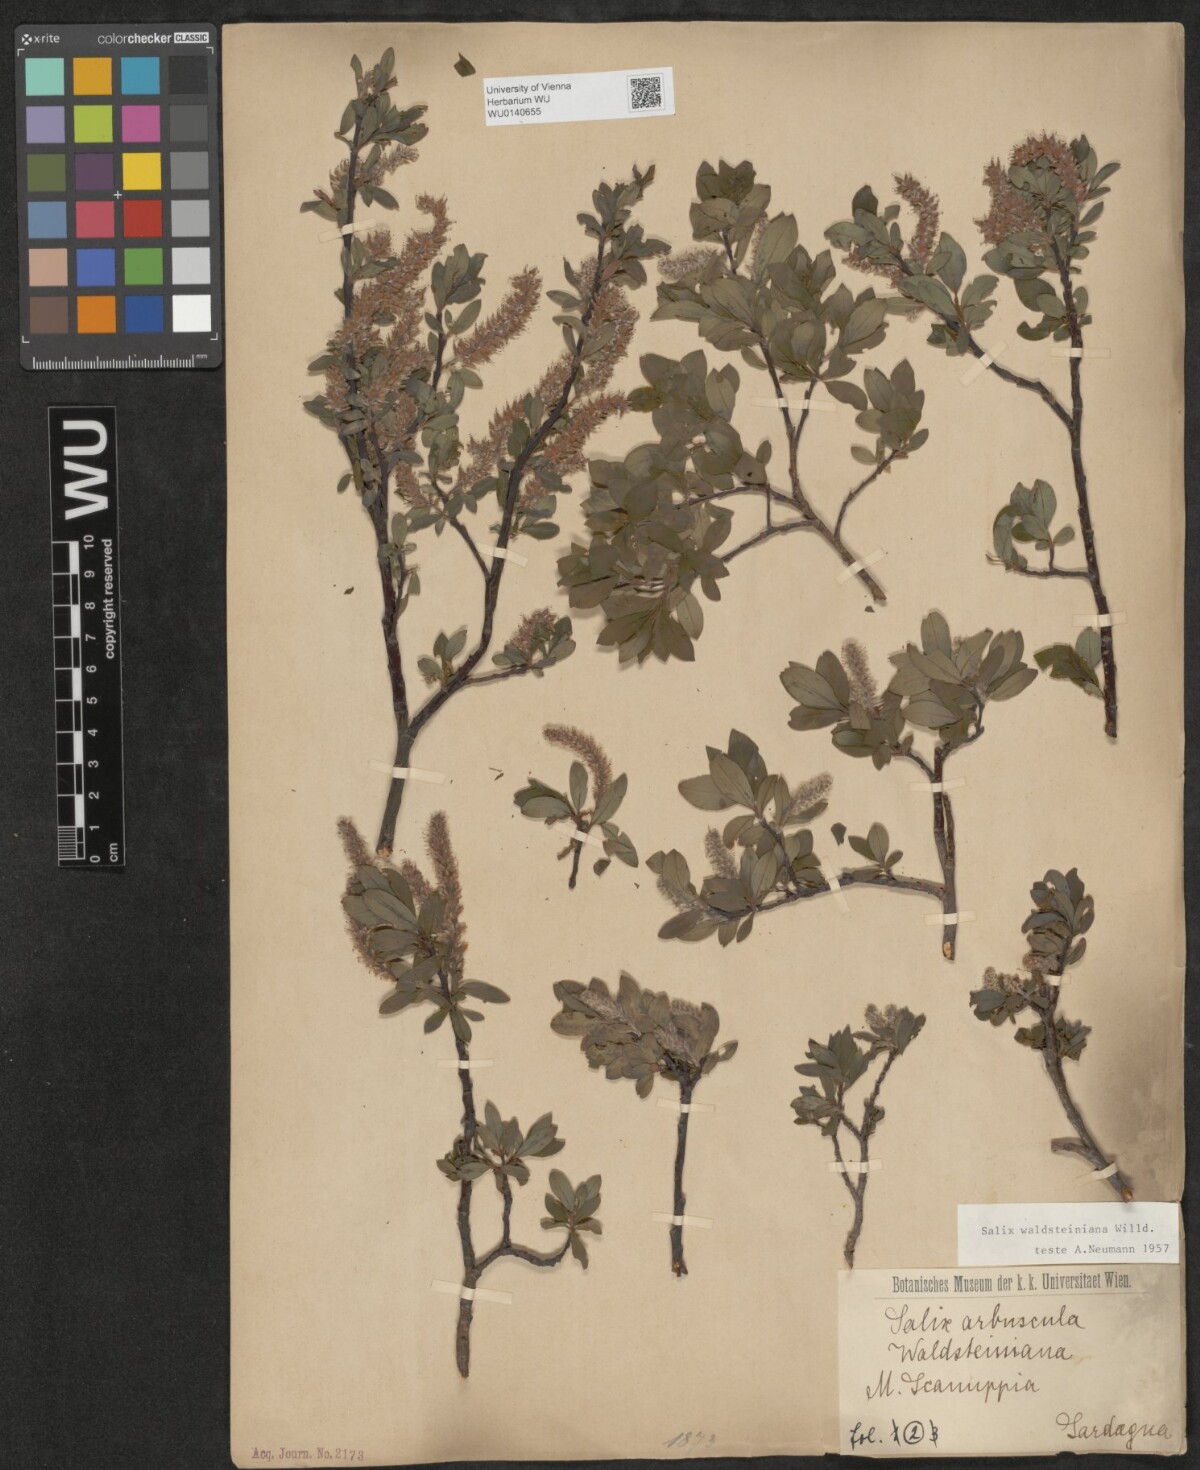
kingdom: Plantae
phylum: Tracheophyta
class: Magnoliopsida
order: Malpighiales
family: Salicaceae
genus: Salix
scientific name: Salix waldsteiniana
